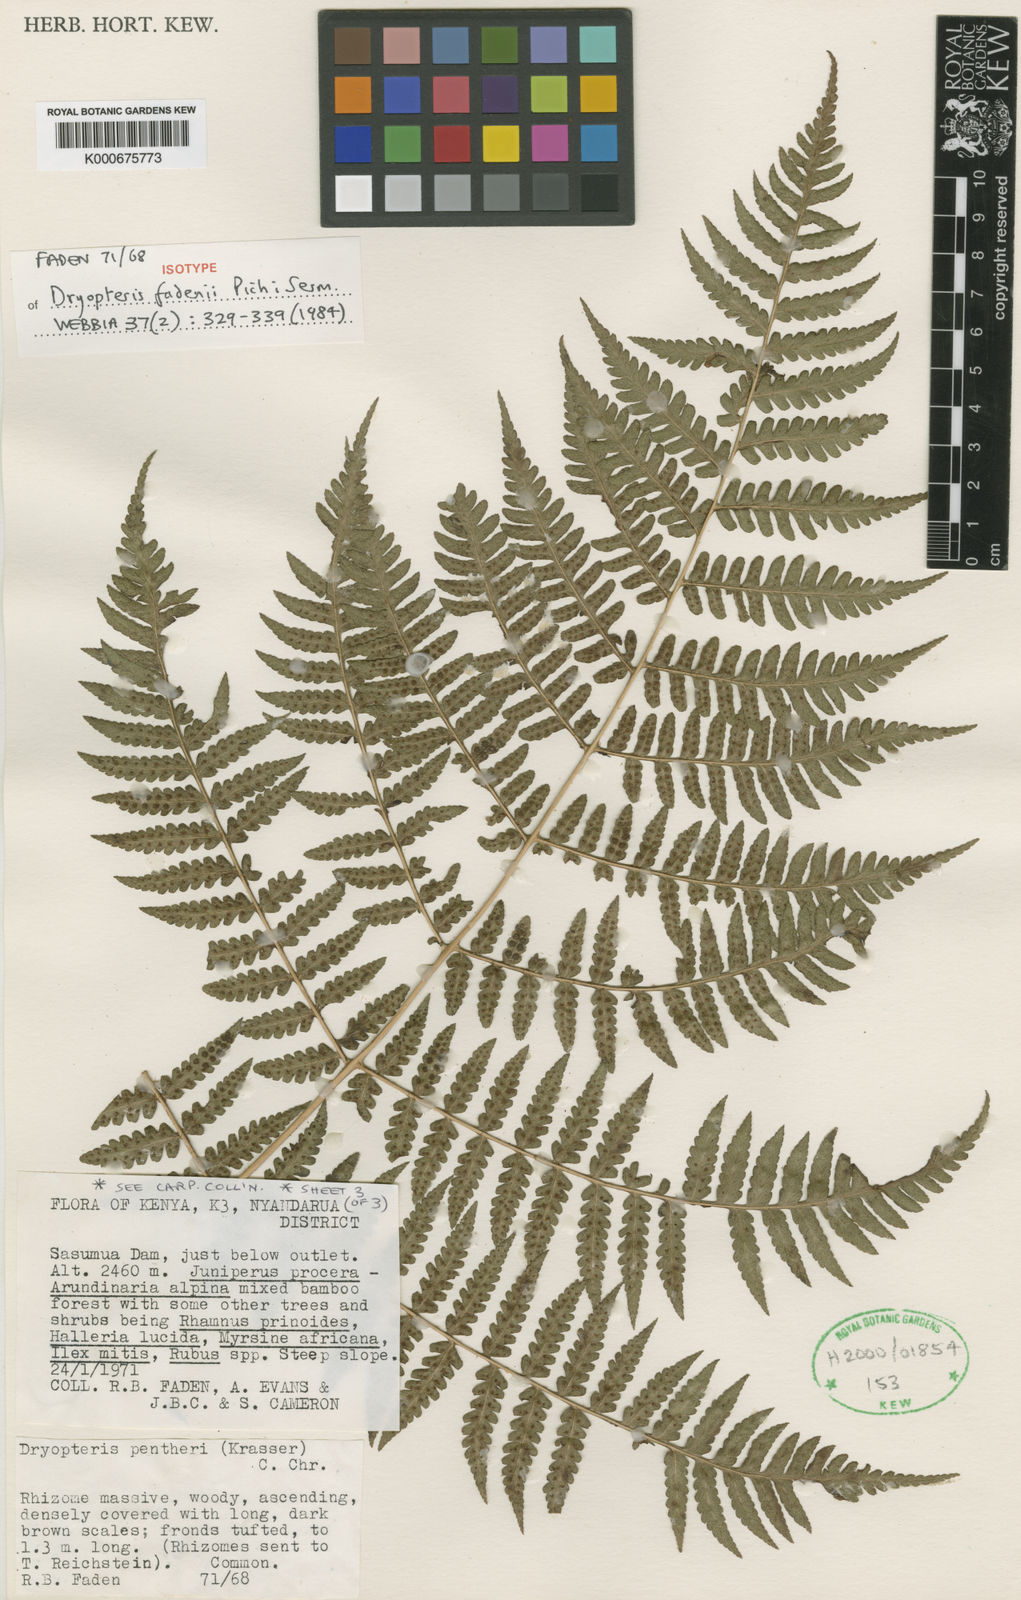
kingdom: Plantae
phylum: Tracheophyta
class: Polypodiopsida
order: Polypodiales
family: Dryopteridaceae
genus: Dryopteris
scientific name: Dryopteris fadenii
